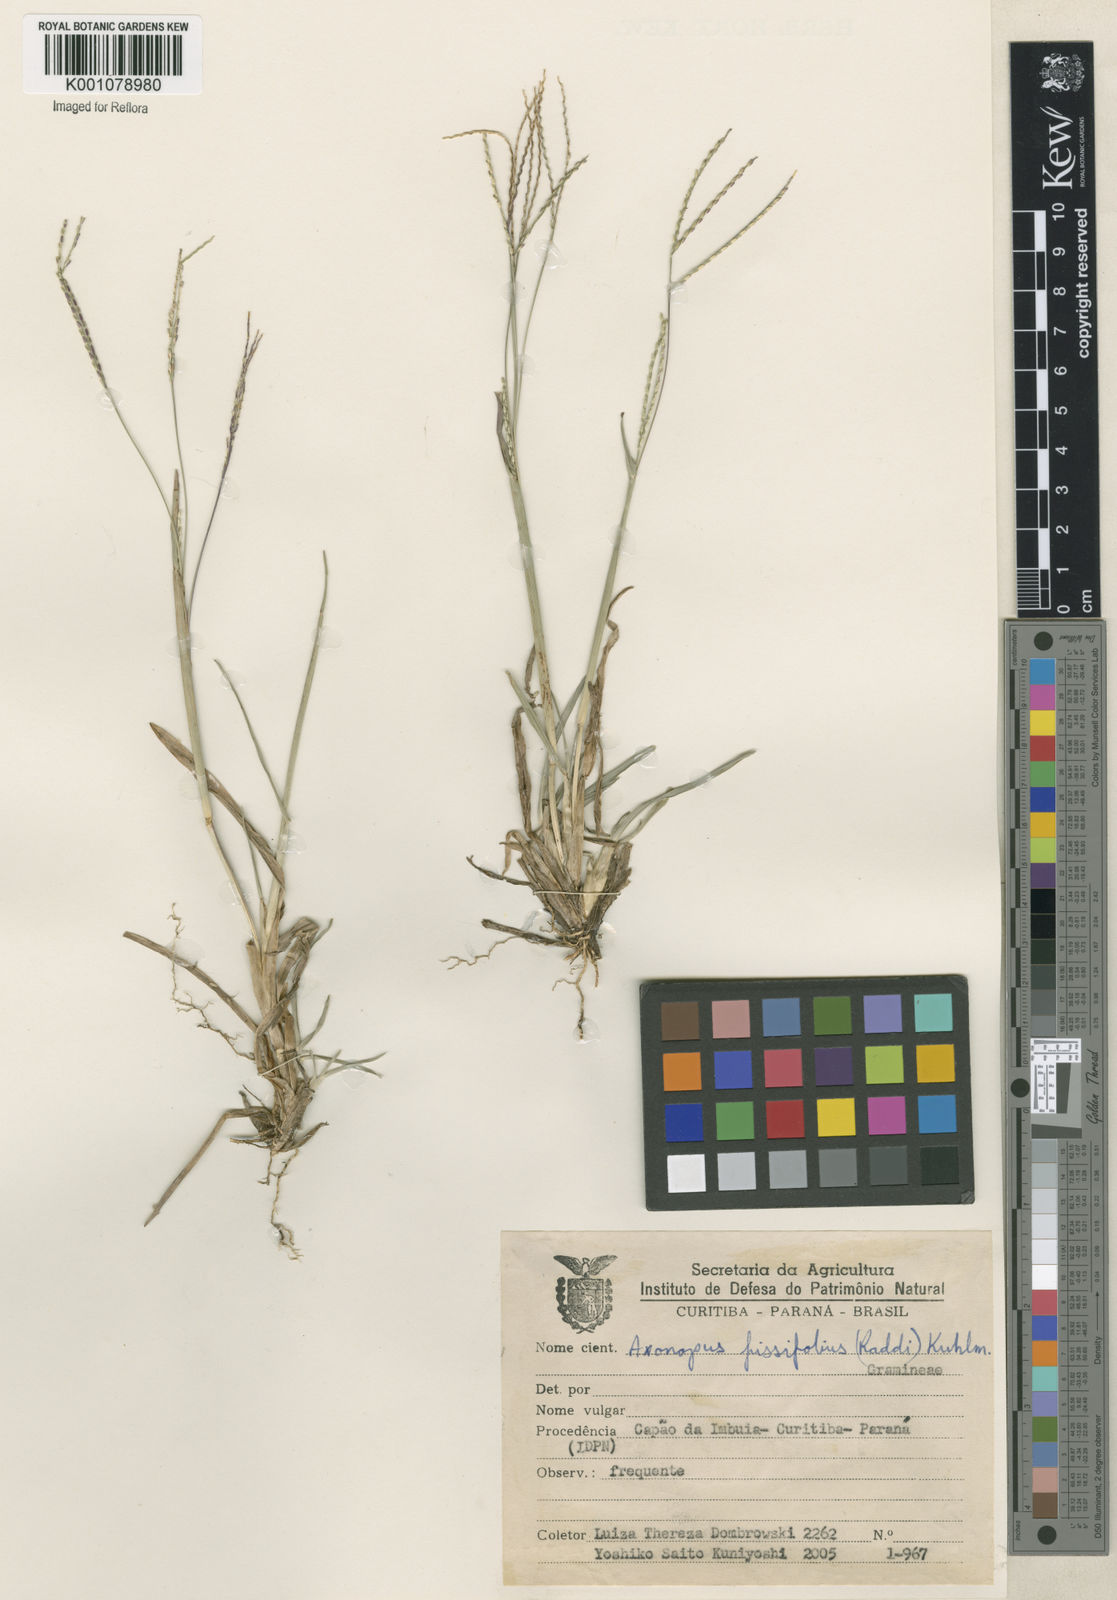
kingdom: Plantae
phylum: Tracheophyta
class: Liliopsida
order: Poales
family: Poaceae
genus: Axonopus
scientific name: Axonopus fissifolius
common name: Common carpetgrass
